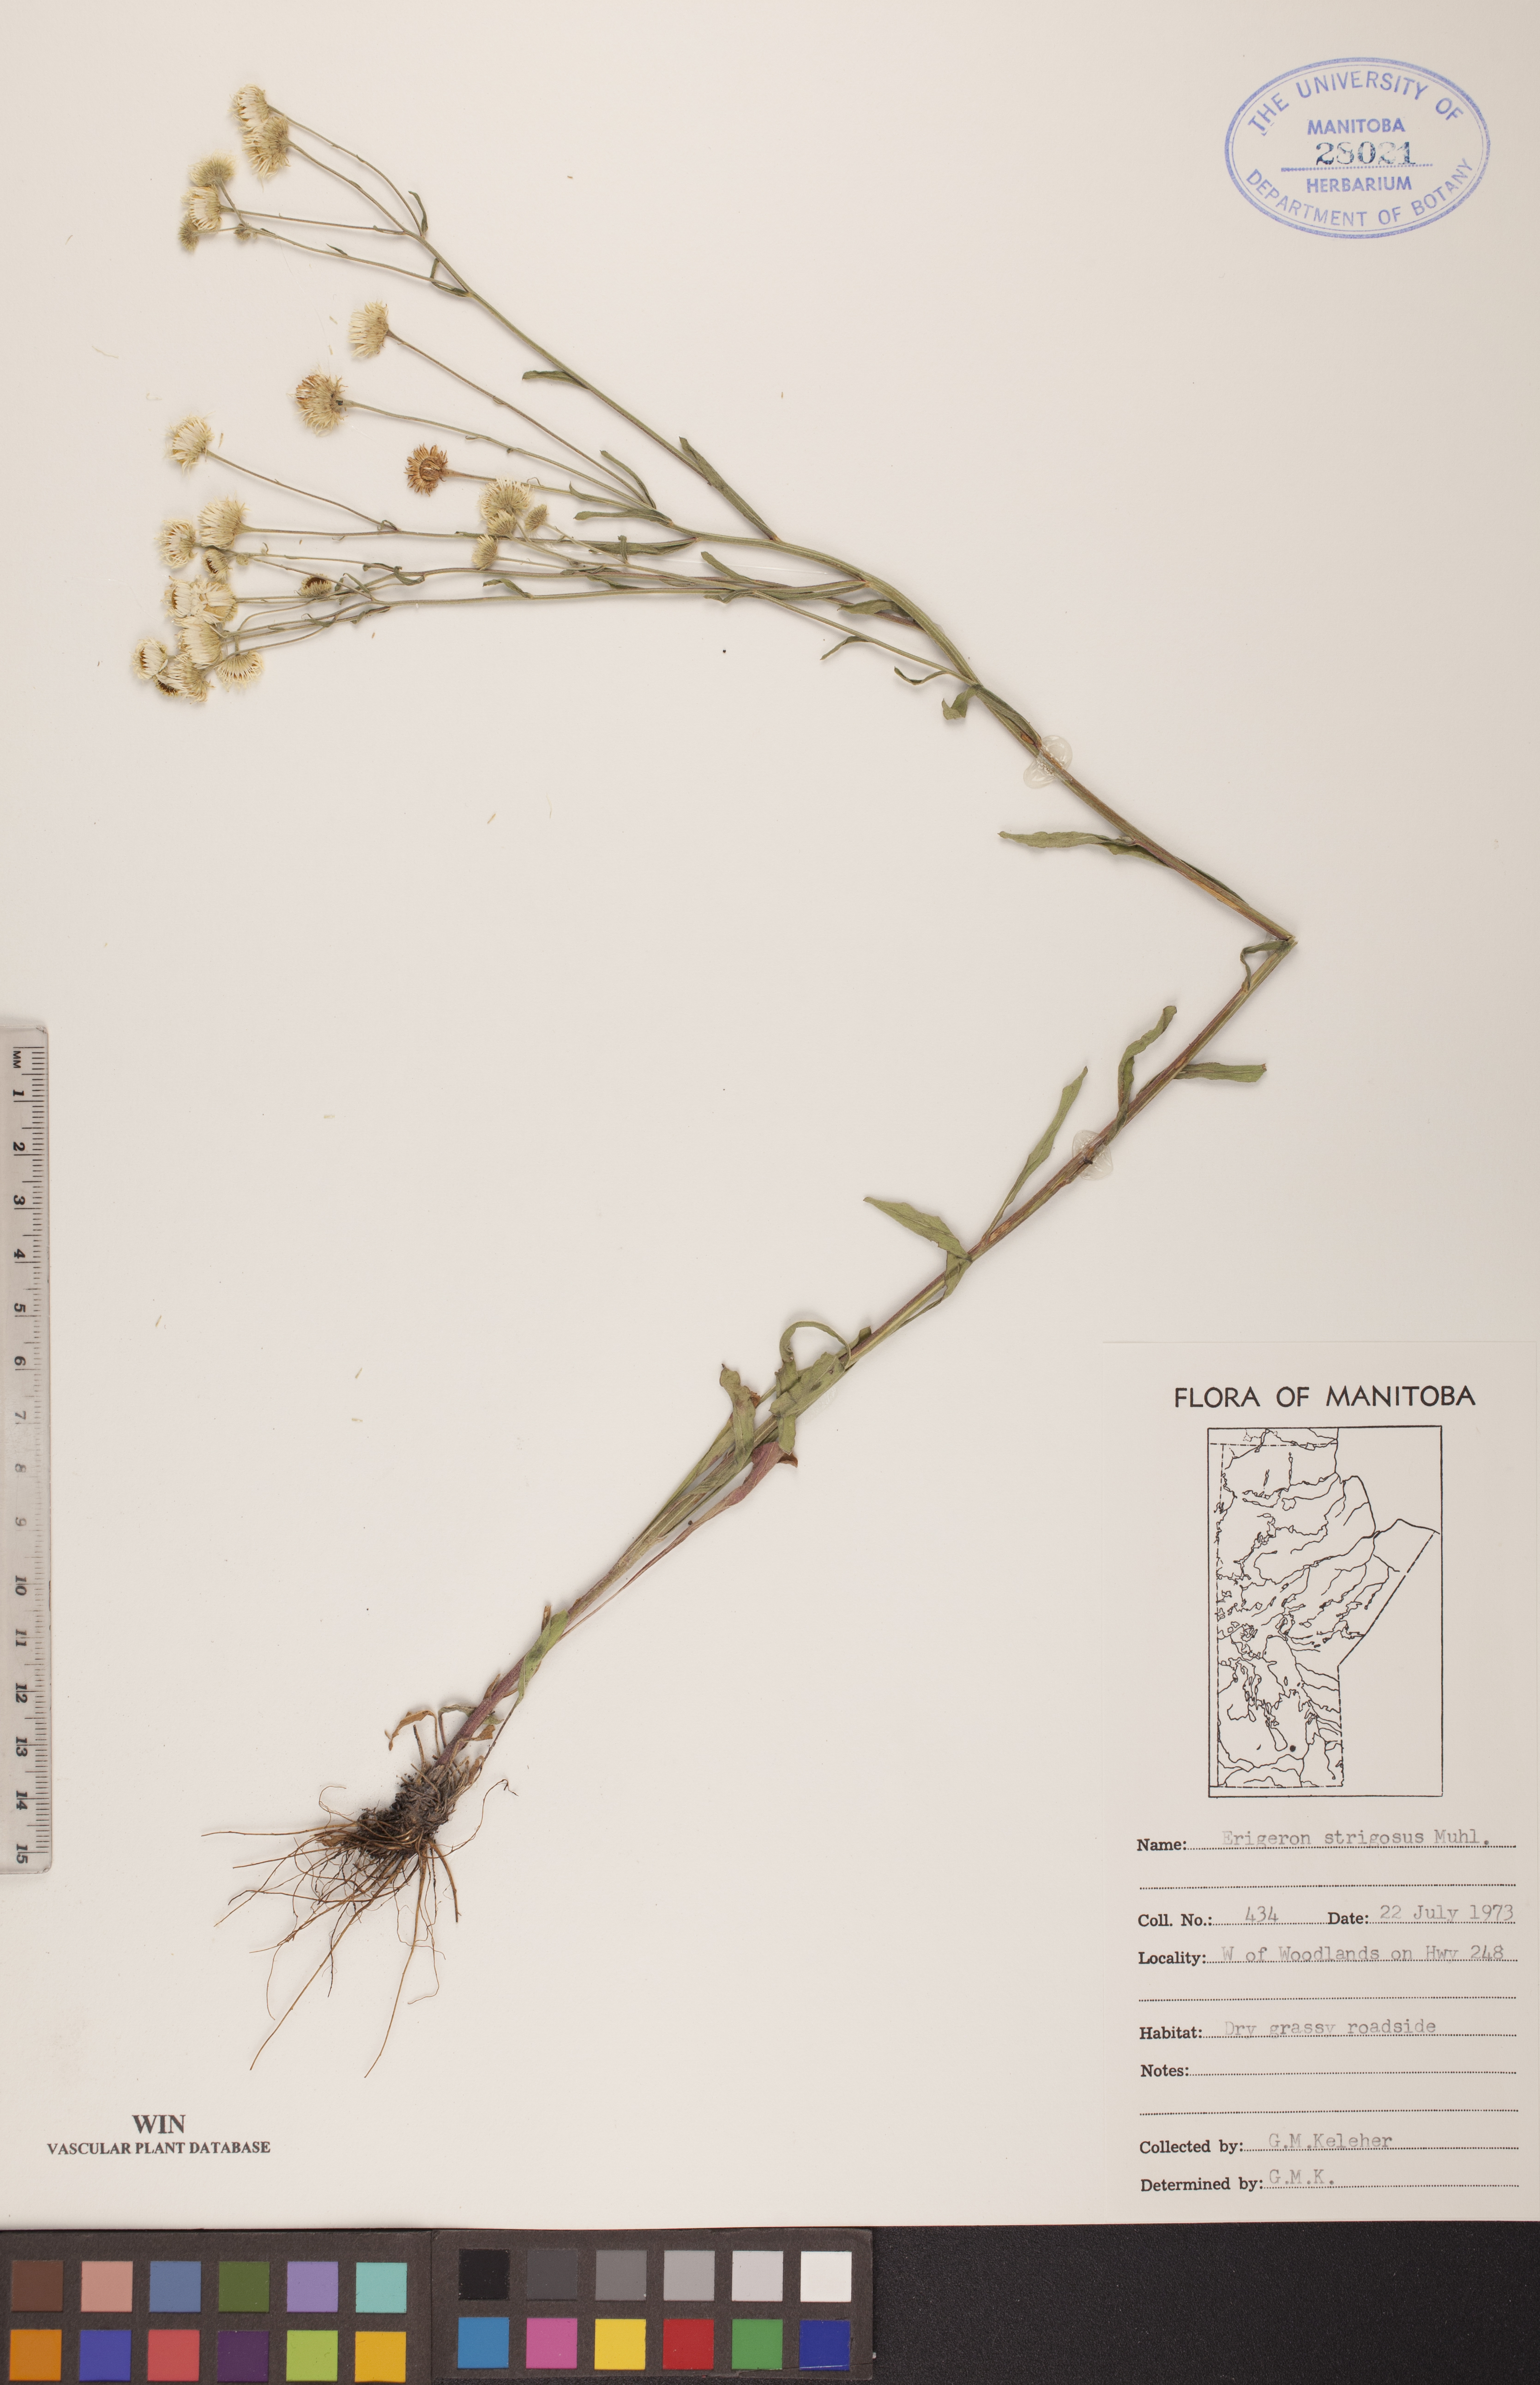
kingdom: Plantae
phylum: Tracheophyta
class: Magnoliopsida
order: Asterales
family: Asteraceae
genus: Erigeron
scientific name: Erigeron strigosus
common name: Common eastern fleabane
